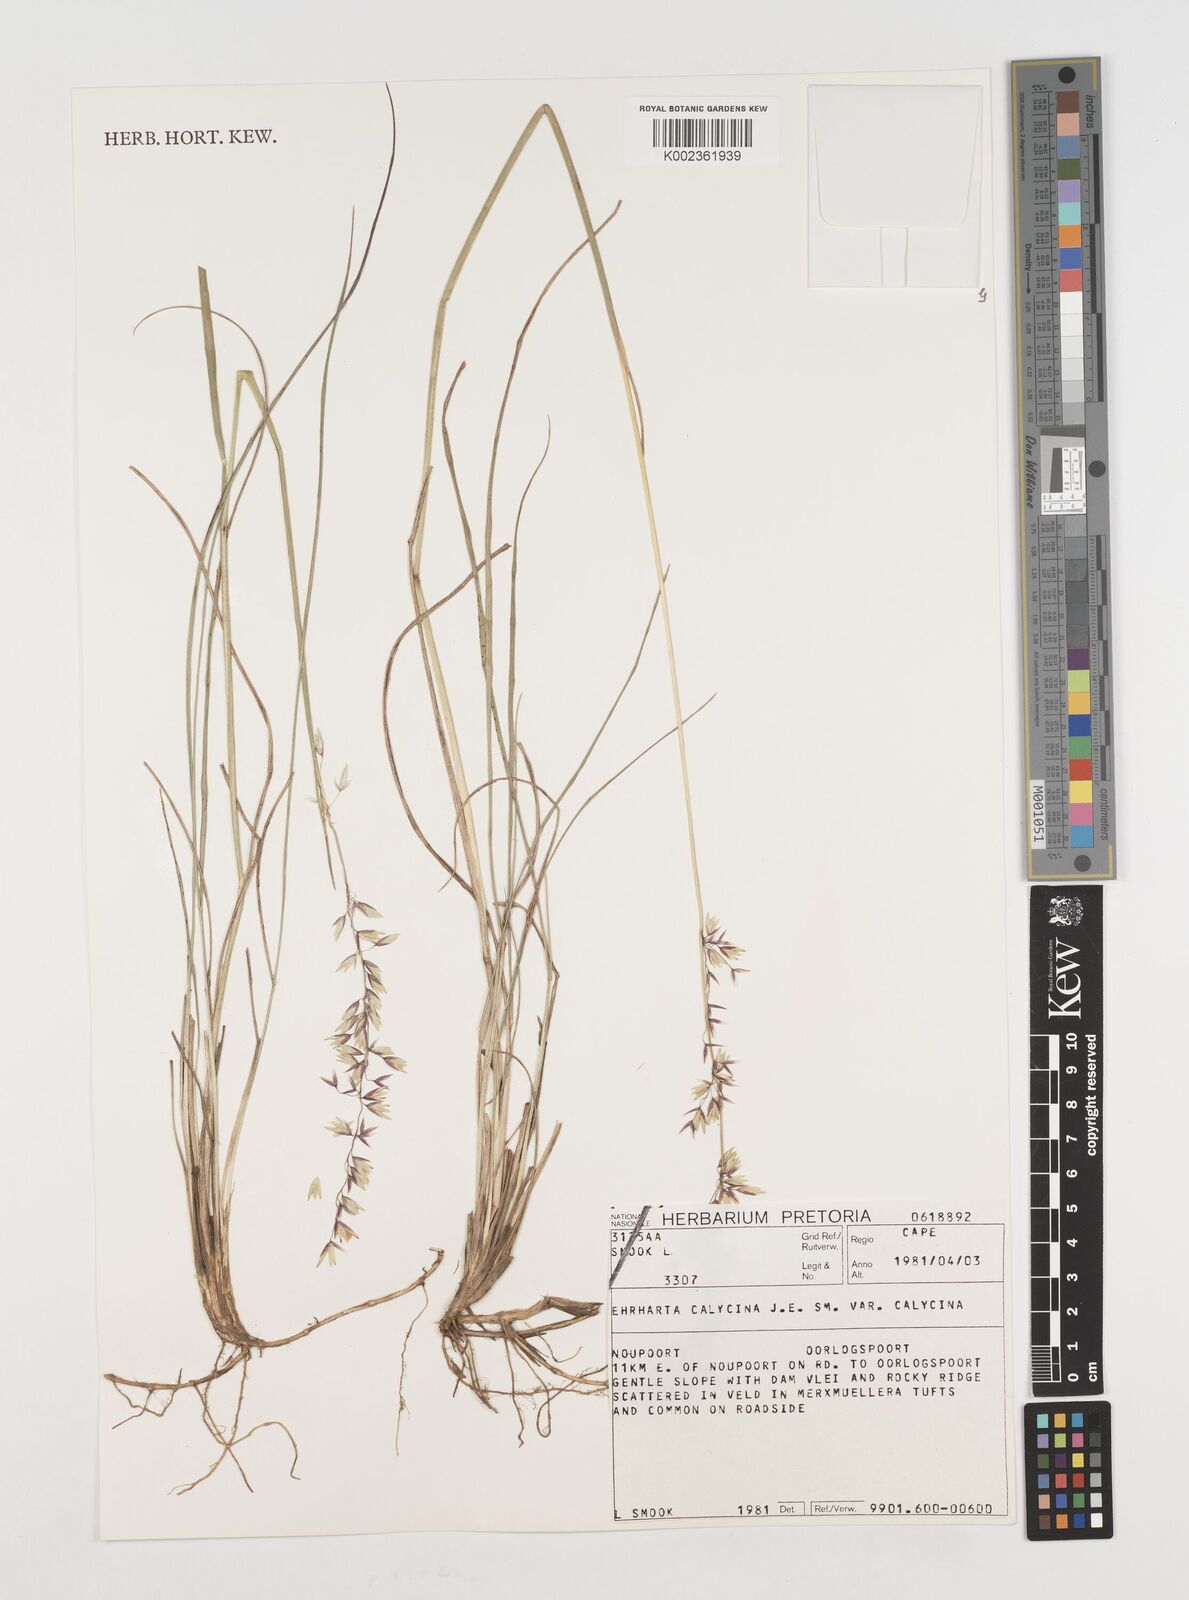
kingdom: Plantae
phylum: Tracheophyta
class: Liliopsida
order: Poales
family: Poaceae
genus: Ehrharta
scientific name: Ehrharta calycina
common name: Perennial veldtgrass
